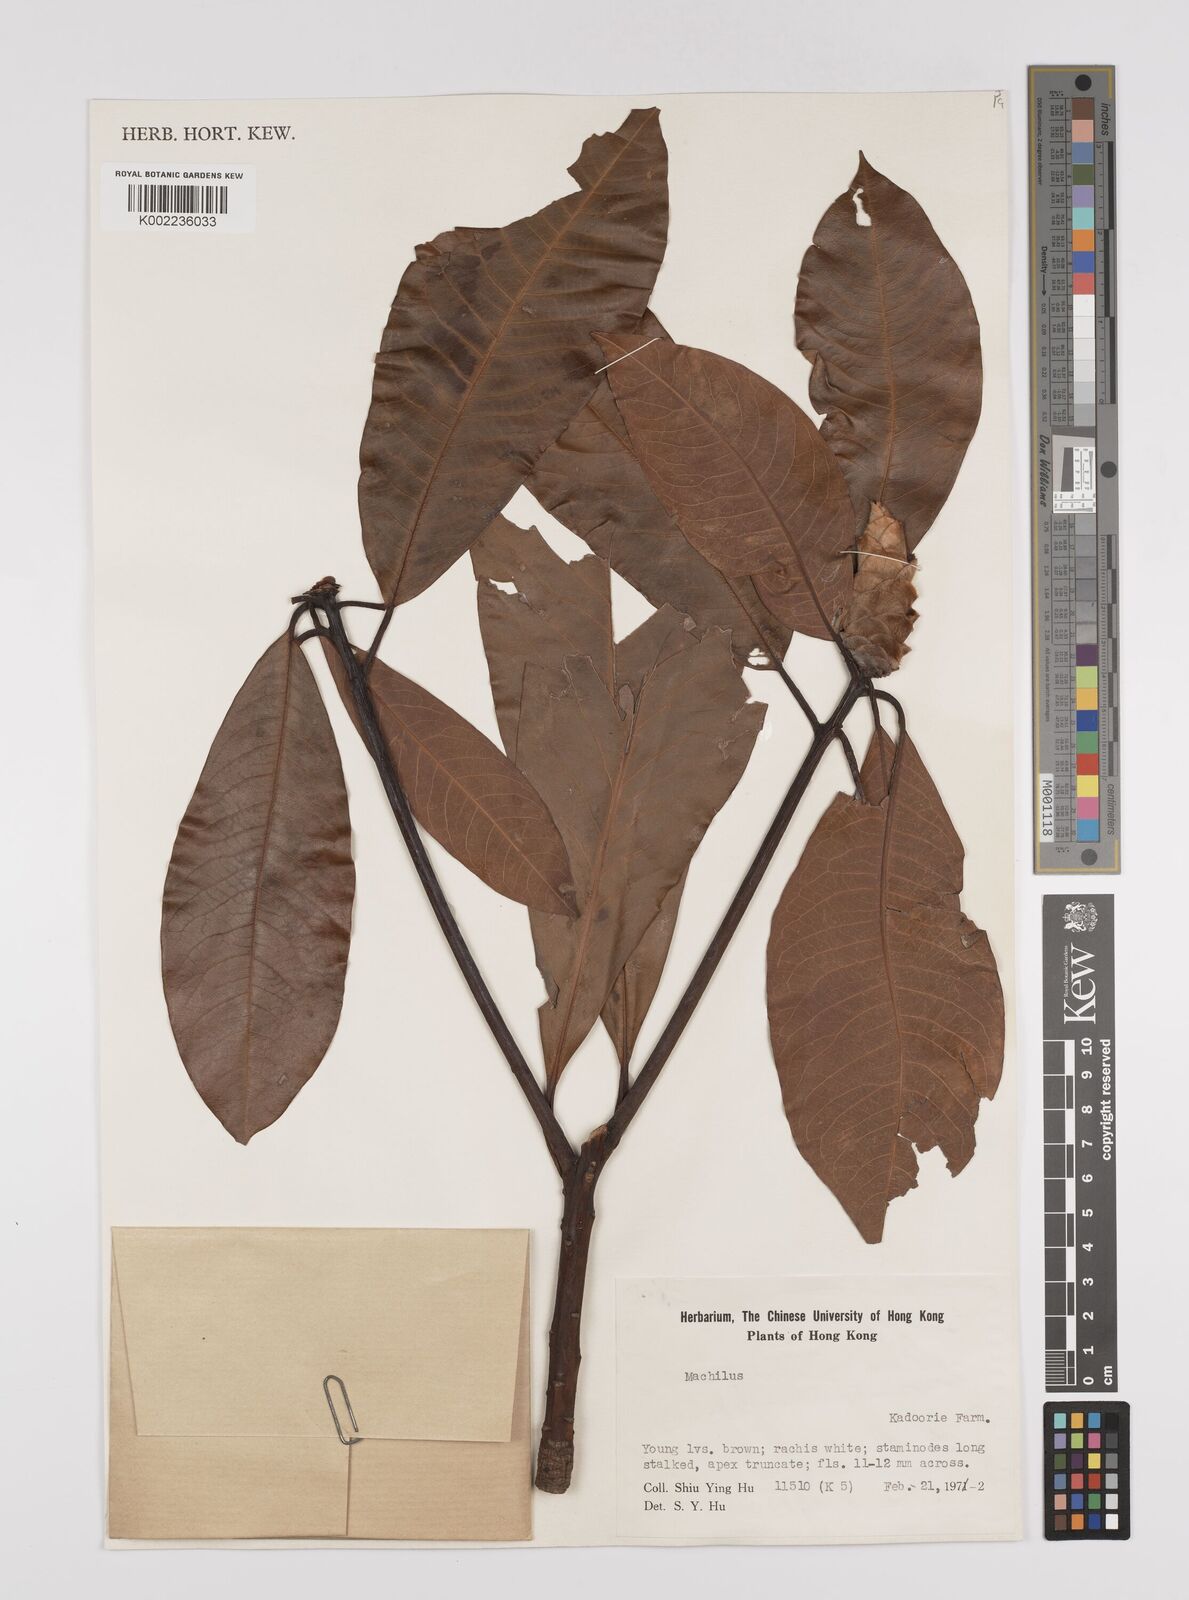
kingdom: Plantae
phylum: Tracheophyta
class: Magnoliopsida
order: Laurales
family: Lauraceae
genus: Persea
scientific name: Persea
